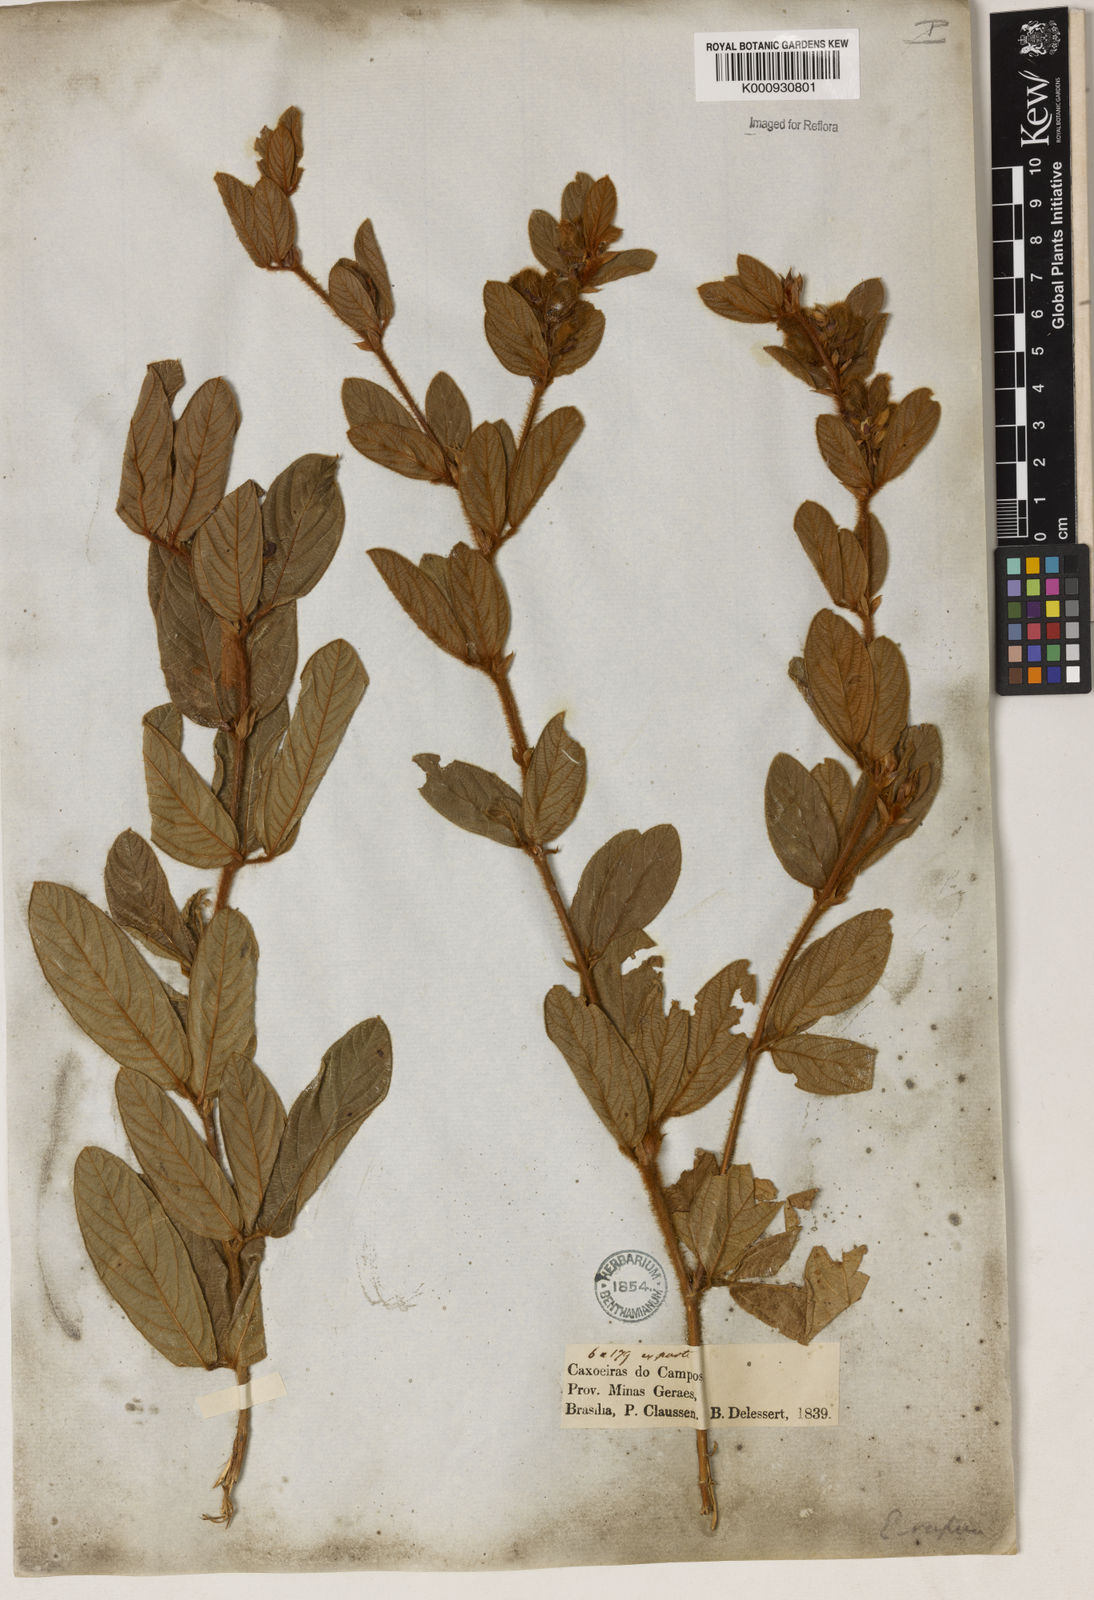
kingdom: Plantae
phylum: Tracheophyta
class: Magnoliopsida
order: Fabales
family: Fabaceae
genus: Eriosema
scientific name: Eriosema rufum
